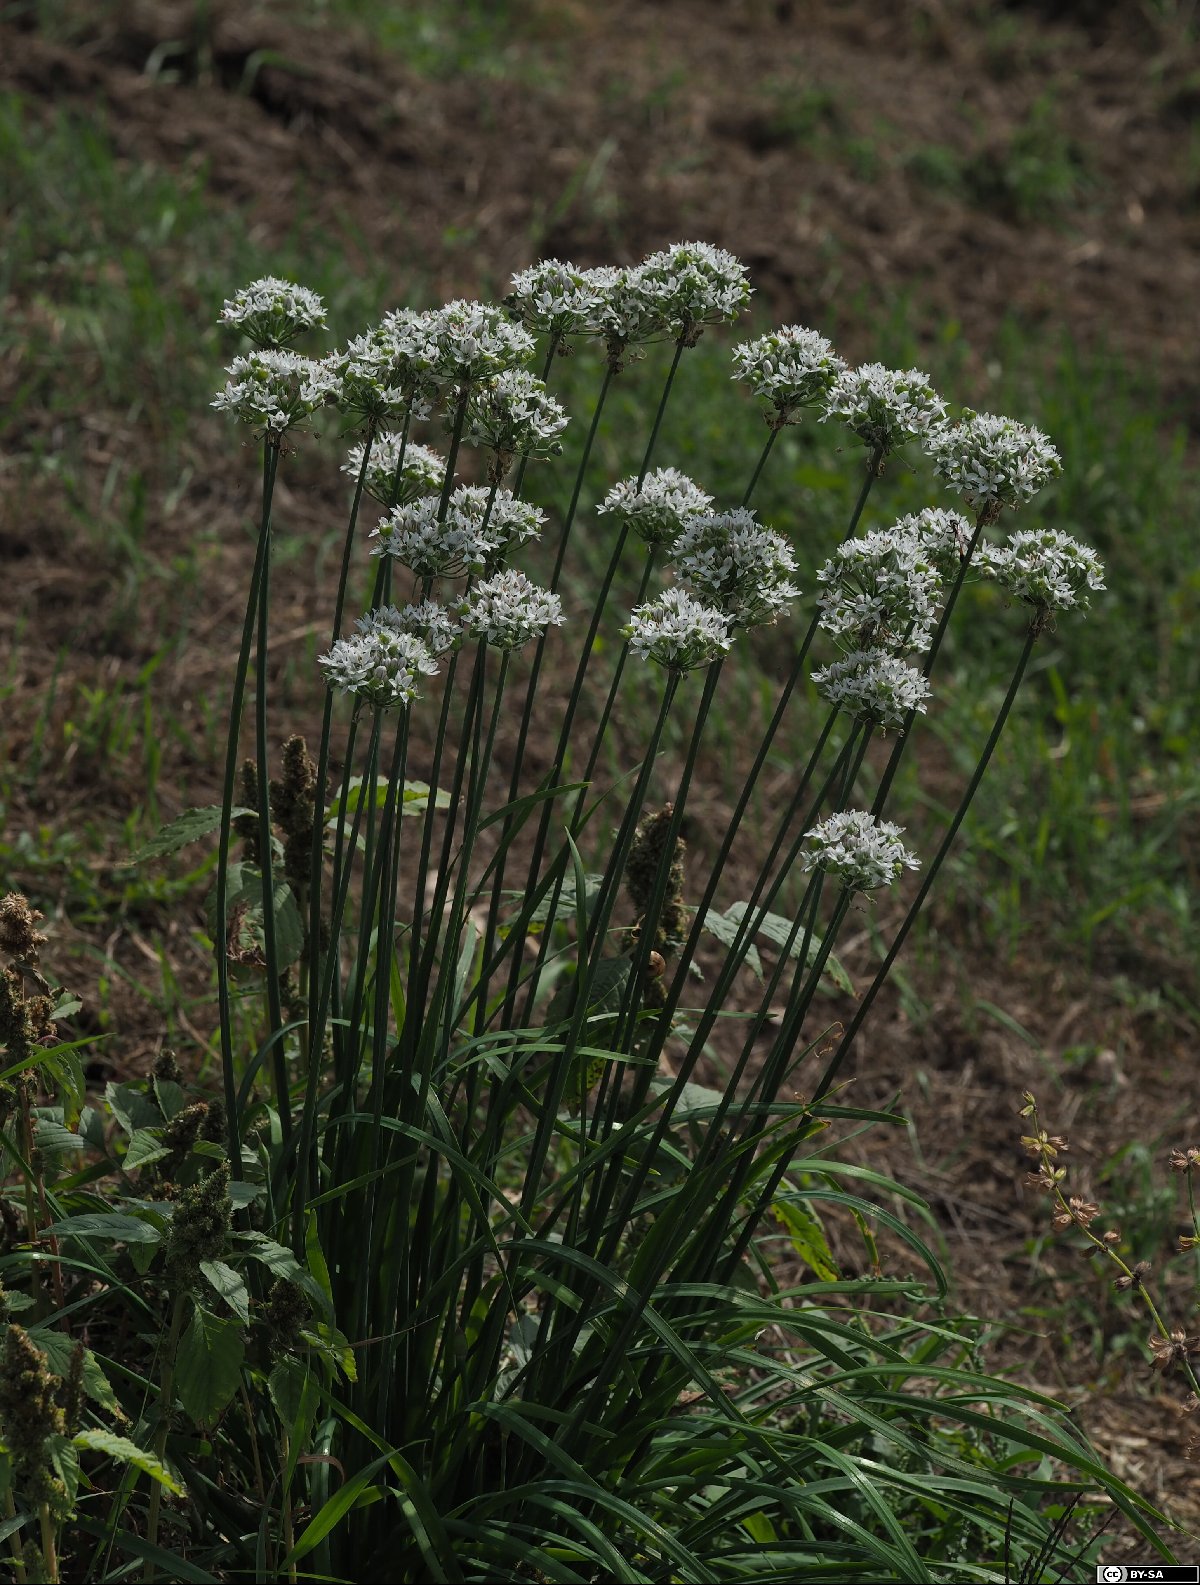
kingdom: Plantae
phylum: Tracheophyta
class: Liliopsida
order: Asparagales
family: Amaryllidaceae
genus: Allium
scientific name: Allium tuberosum
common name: Chinese chives
